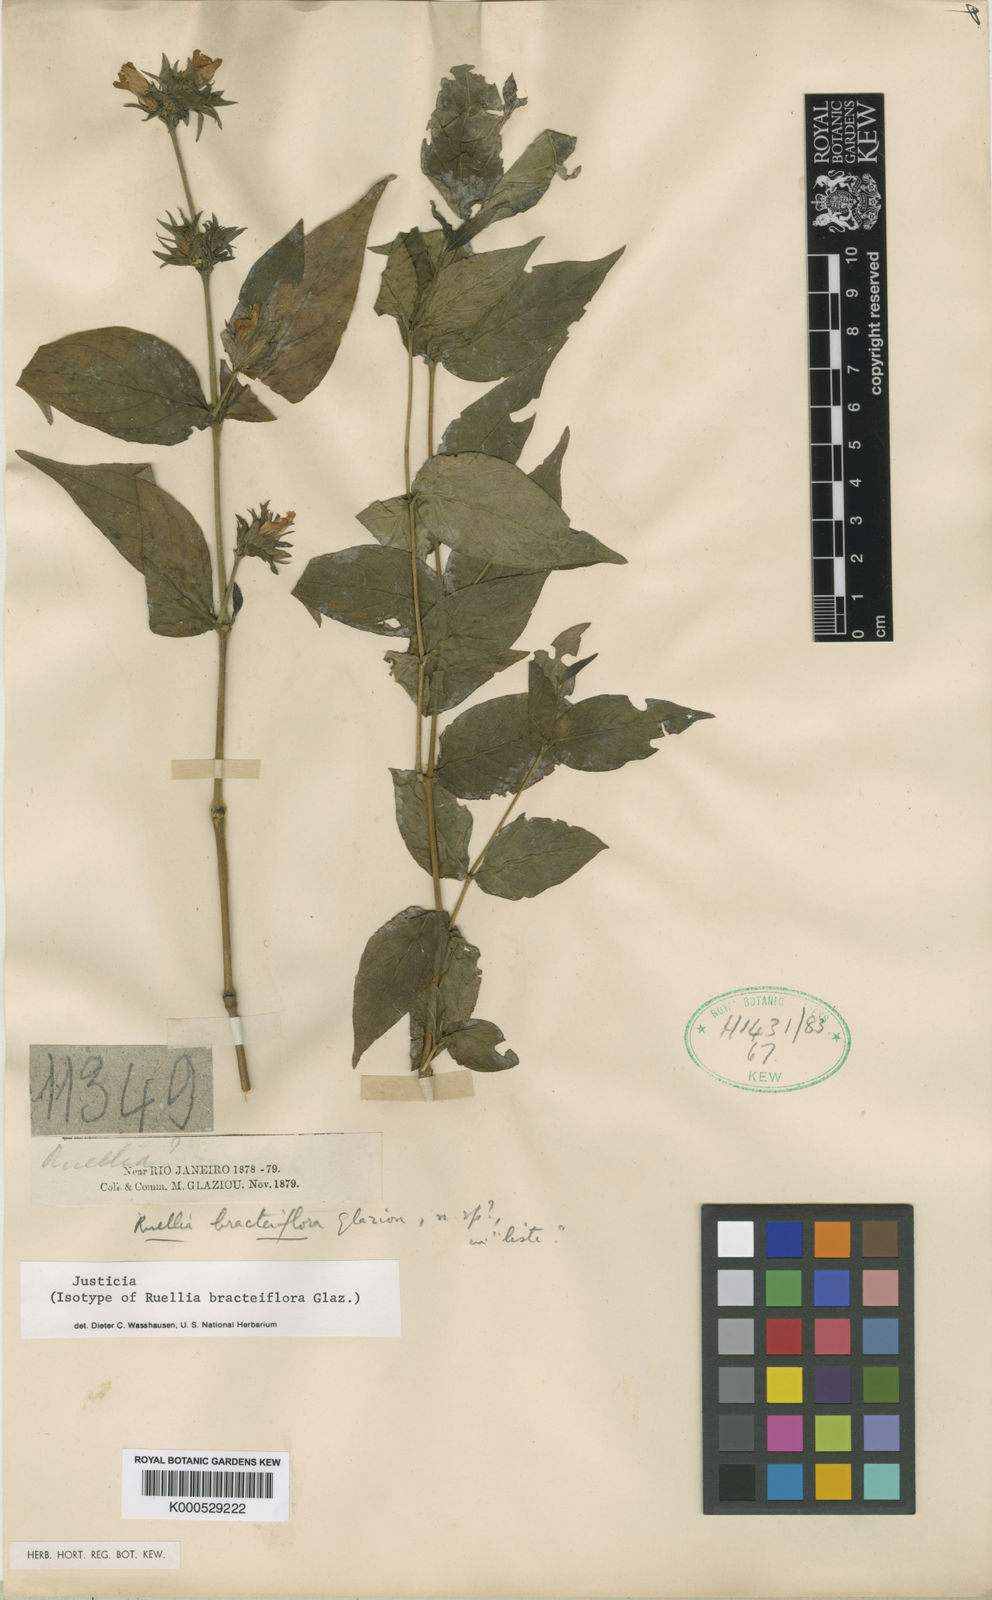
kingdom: Plantae
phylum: Tracheophyta
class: Magnoliopsida
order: Lamiales
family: Acanthaceae
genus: Justicia
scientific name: Justicia
